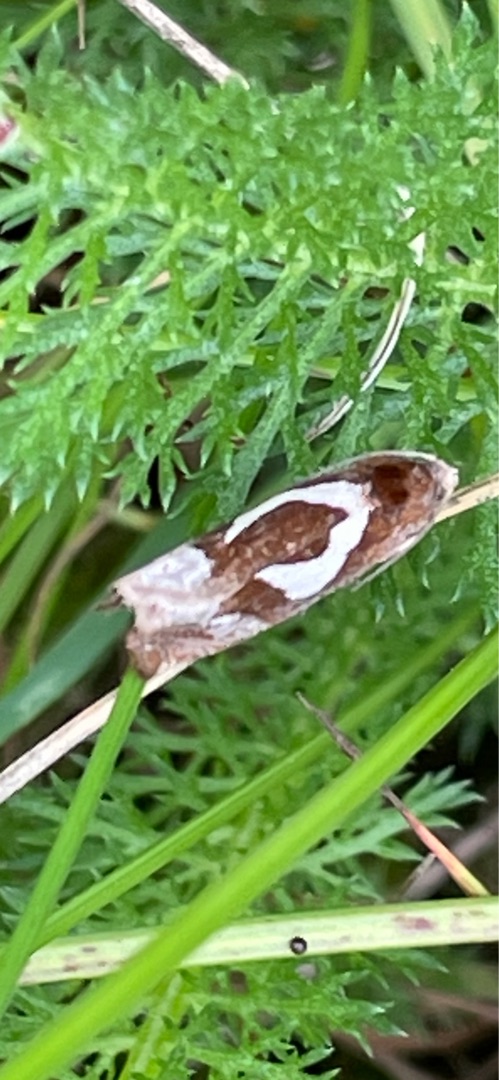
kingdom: Animalia
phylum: Arthropoda
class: Insecta
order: Lepidoptera
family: Tortricidae
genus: Epiblema
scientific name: Epiblema foenella
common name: Gråbynkegallevikler
